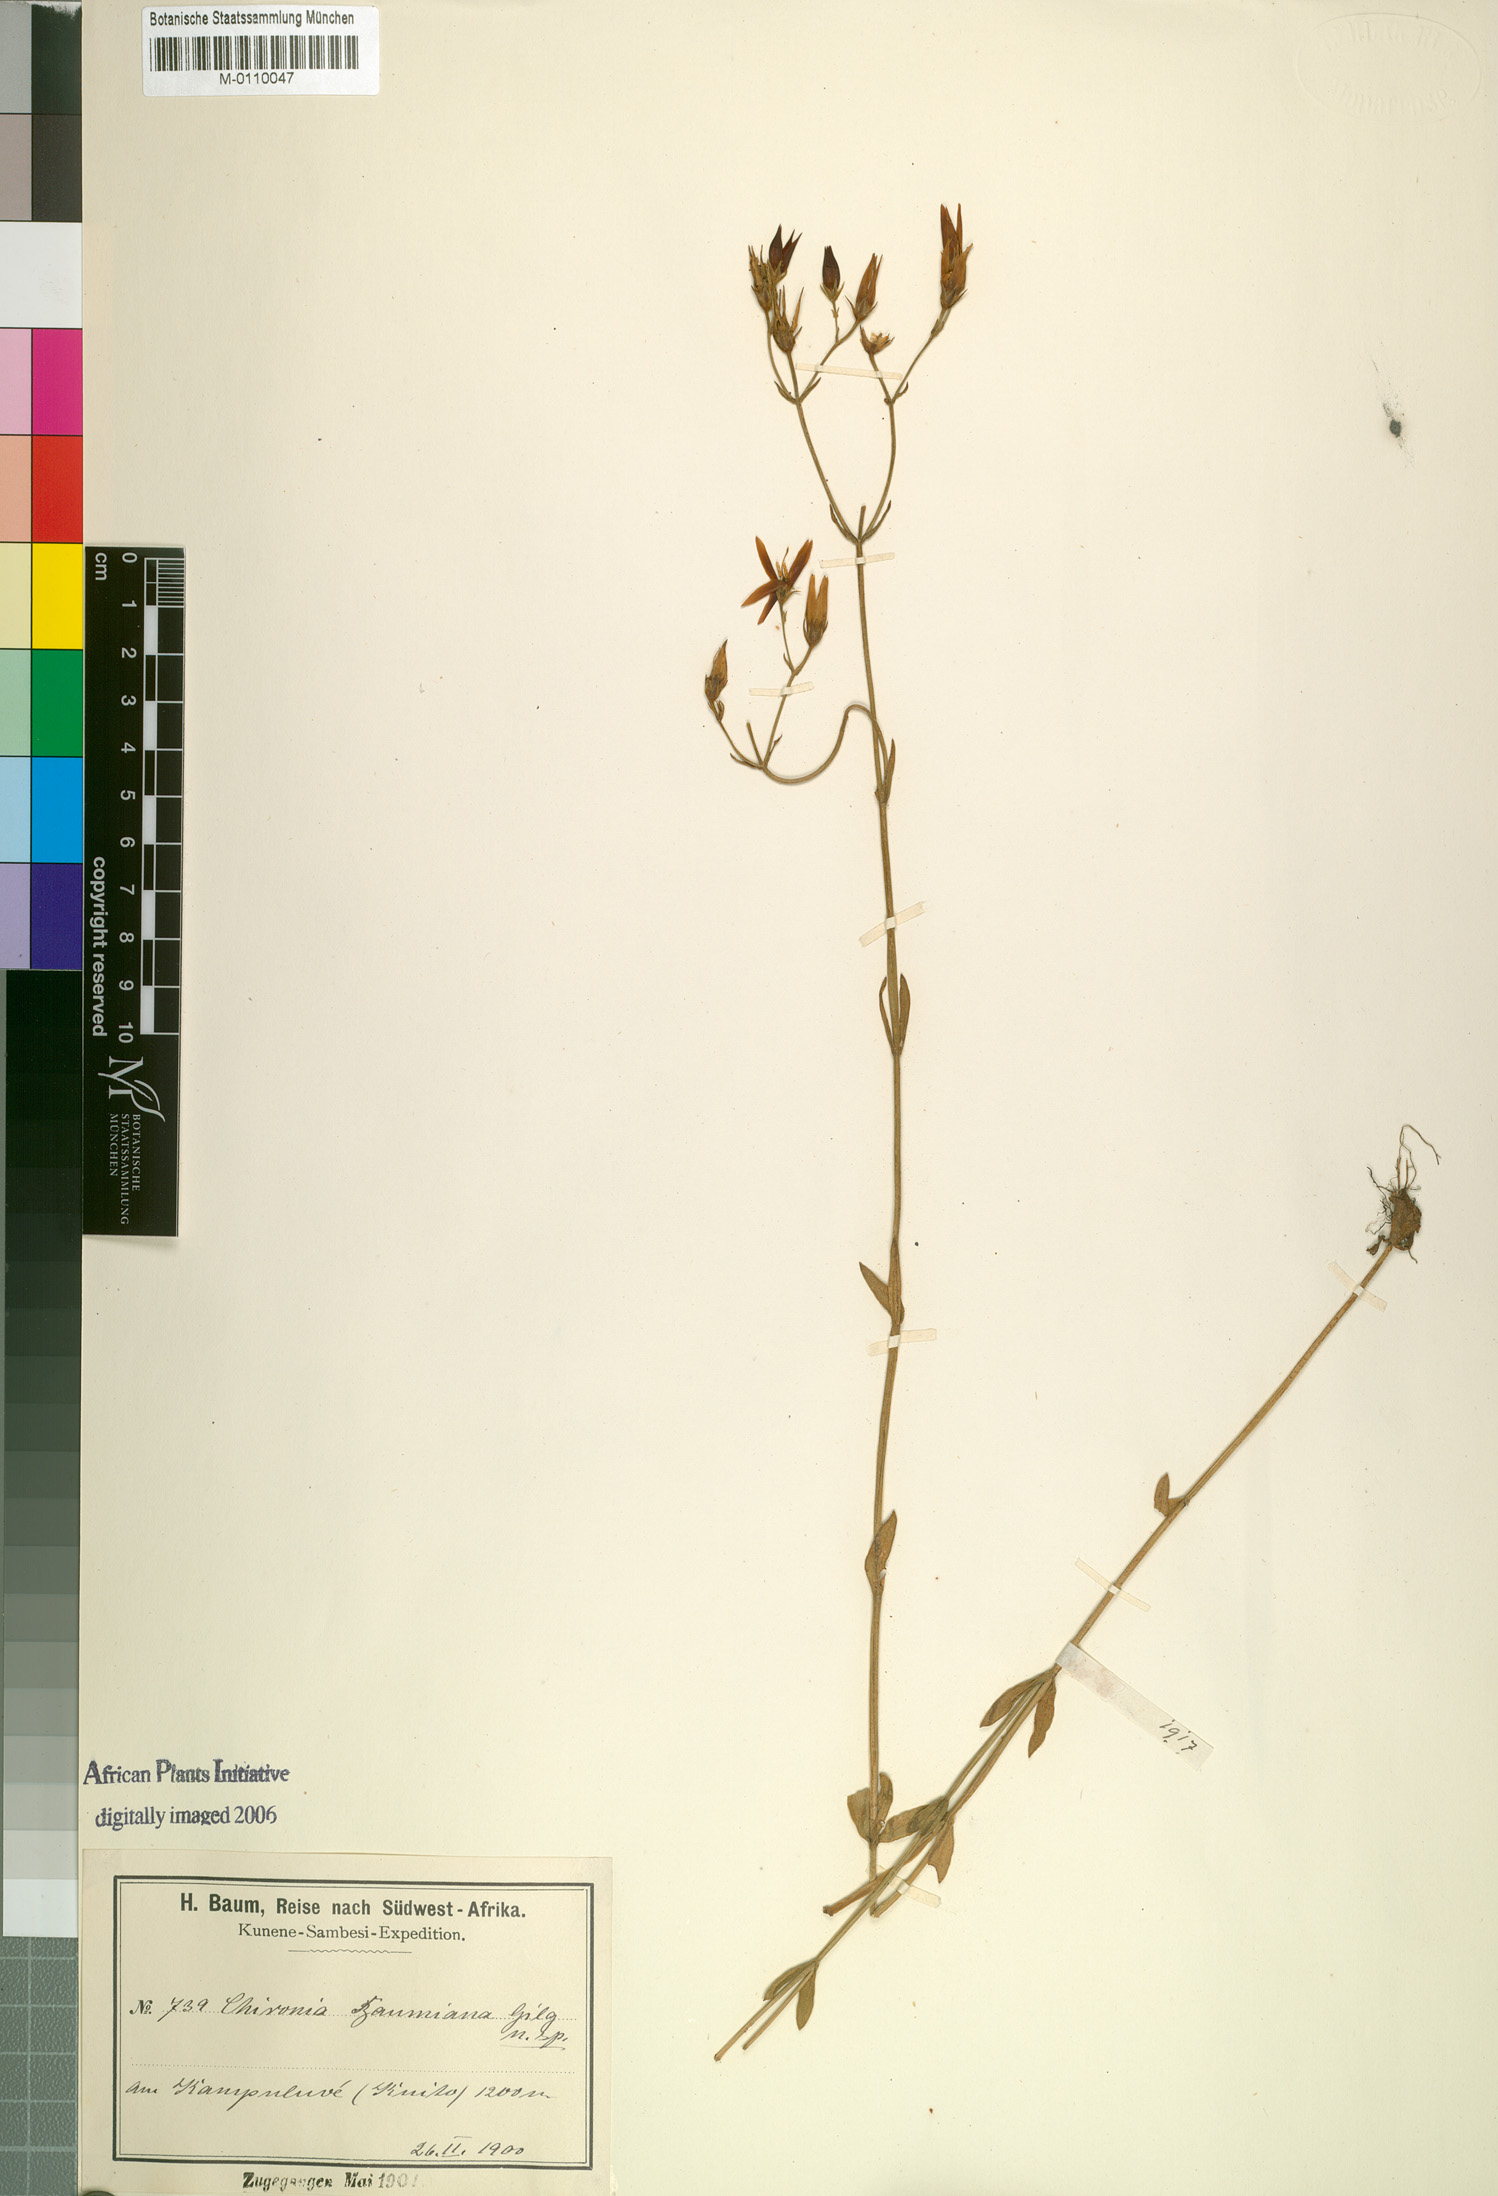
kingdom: Plantae
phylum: Tracheophyta
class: Magnoliopsida
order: Gentianales
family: Gentianaceae
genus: Chironia
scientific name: Chironia baumiana
